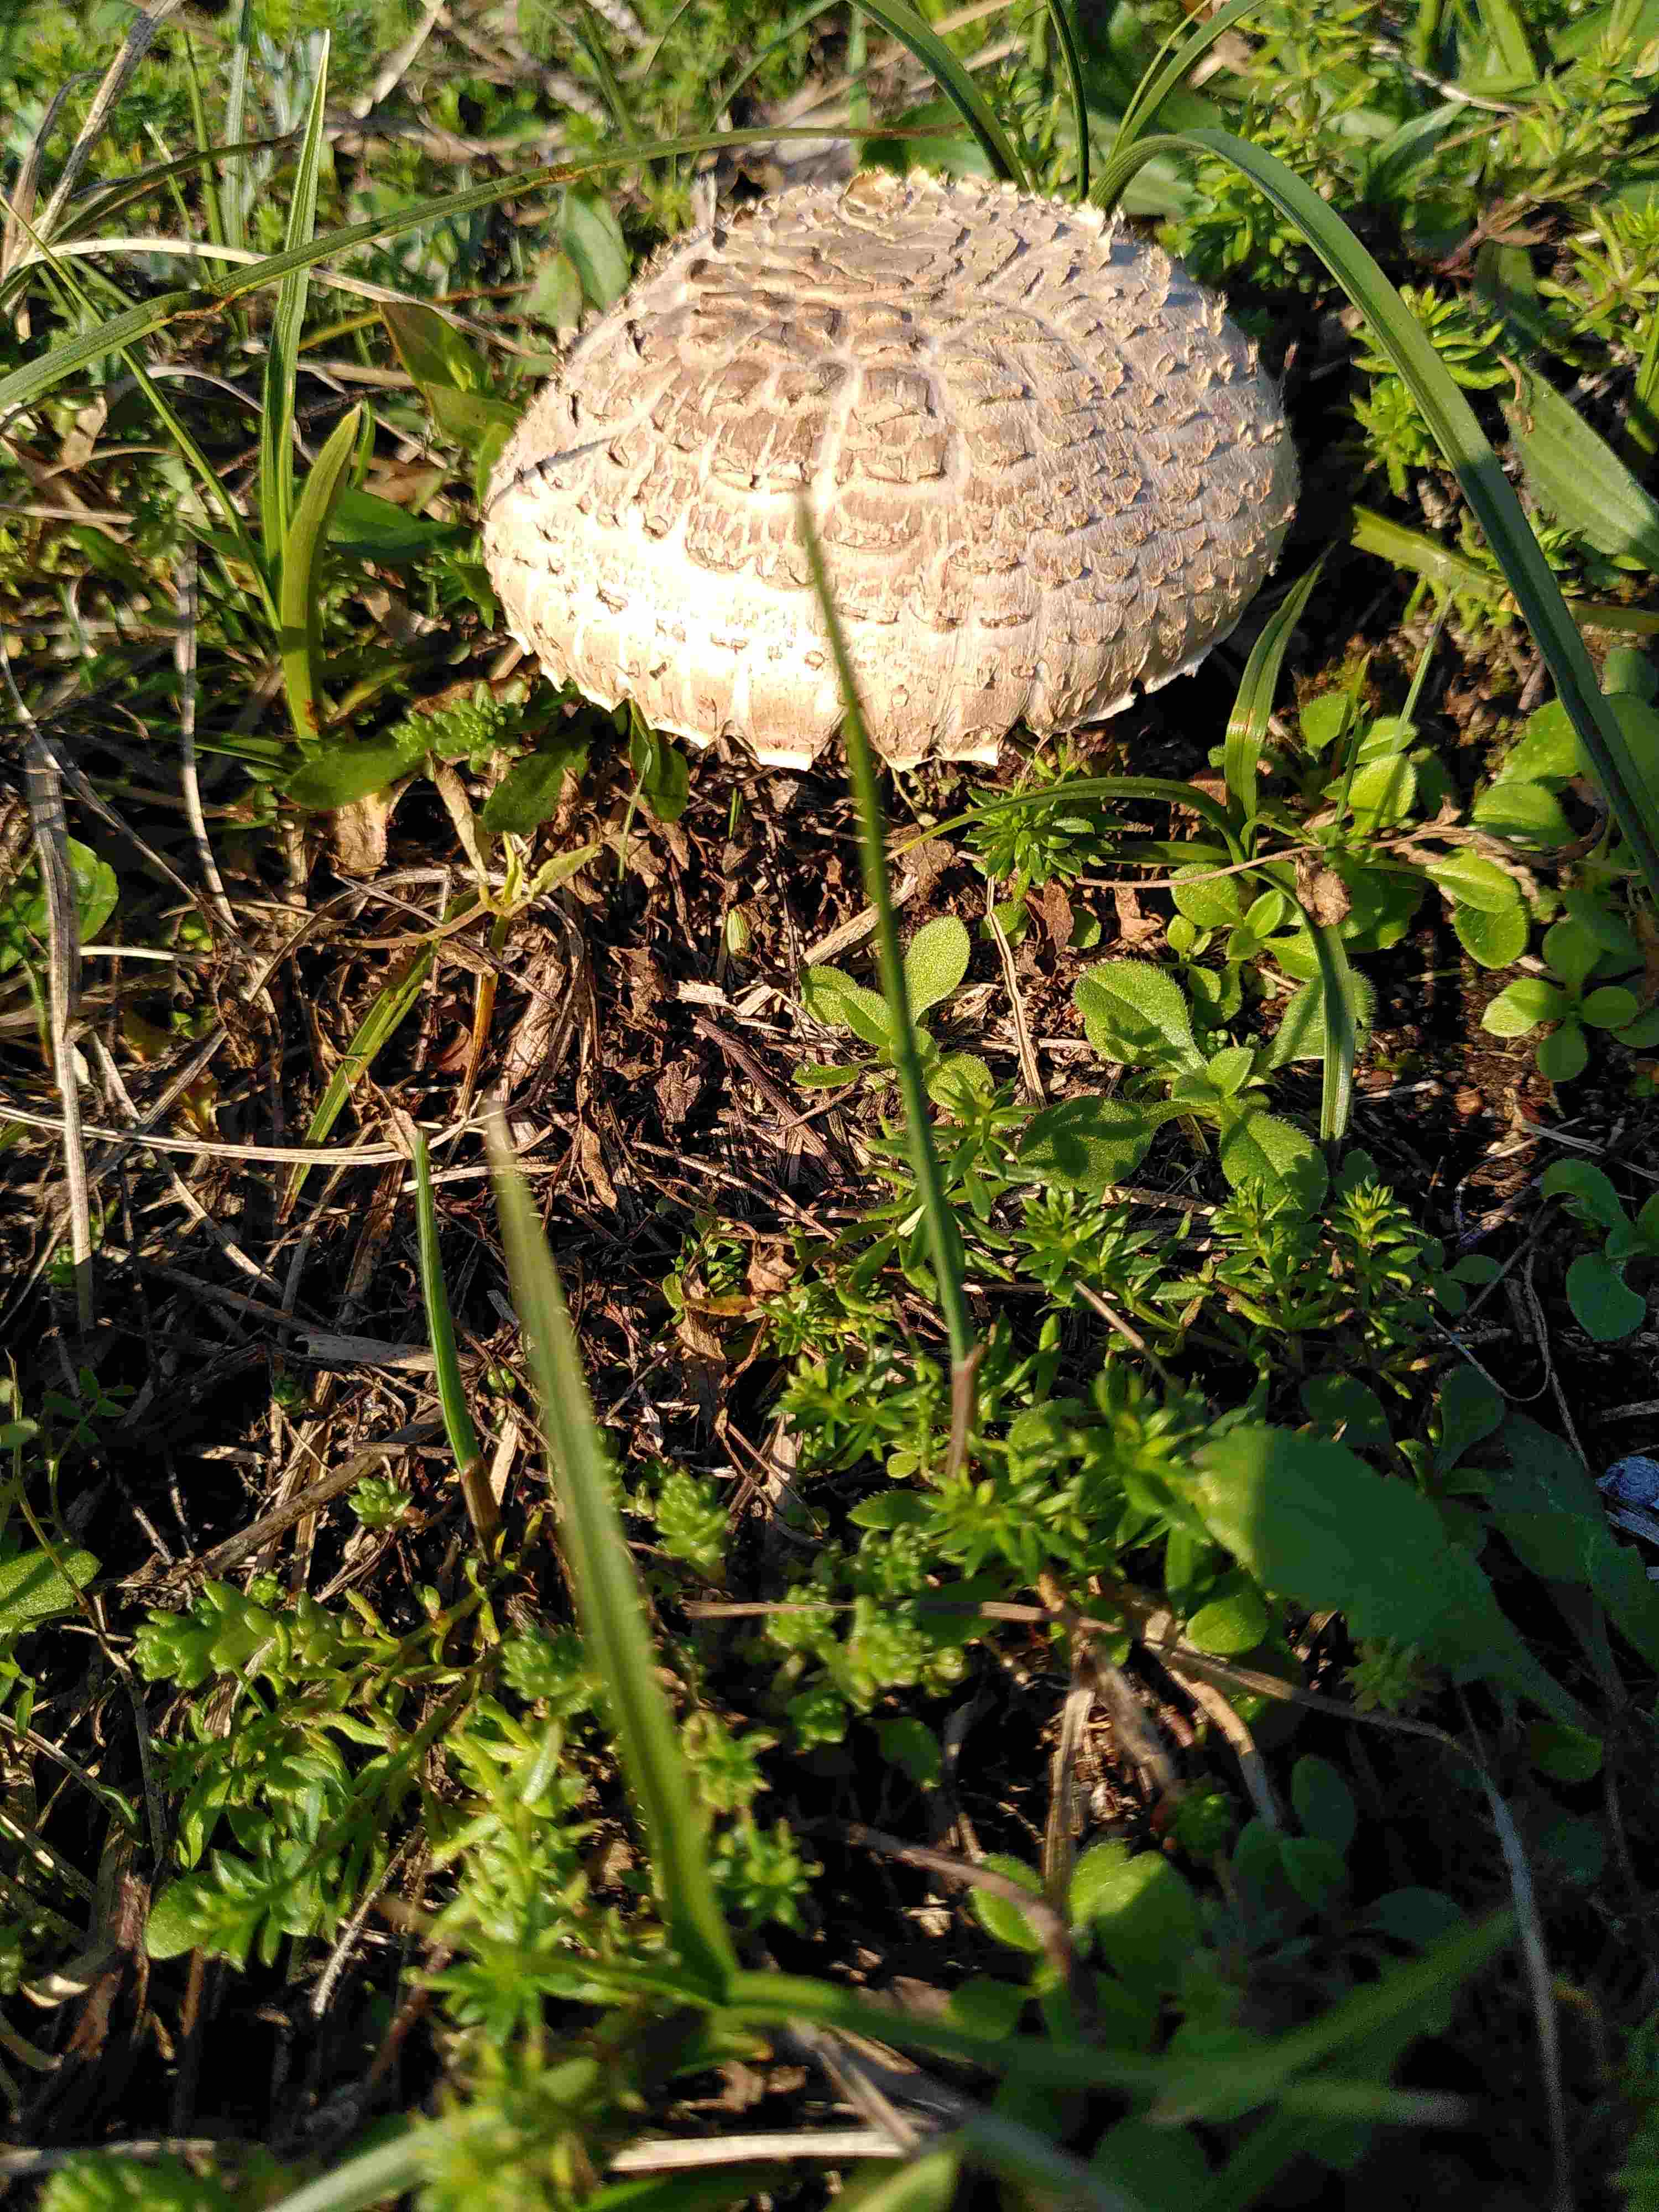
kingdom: Fungi
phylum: Basidiomycota
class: Agaricomycetes
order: Agaricales
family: Agaricaceae
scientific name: Agaricaceae
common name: champignonfamilien
